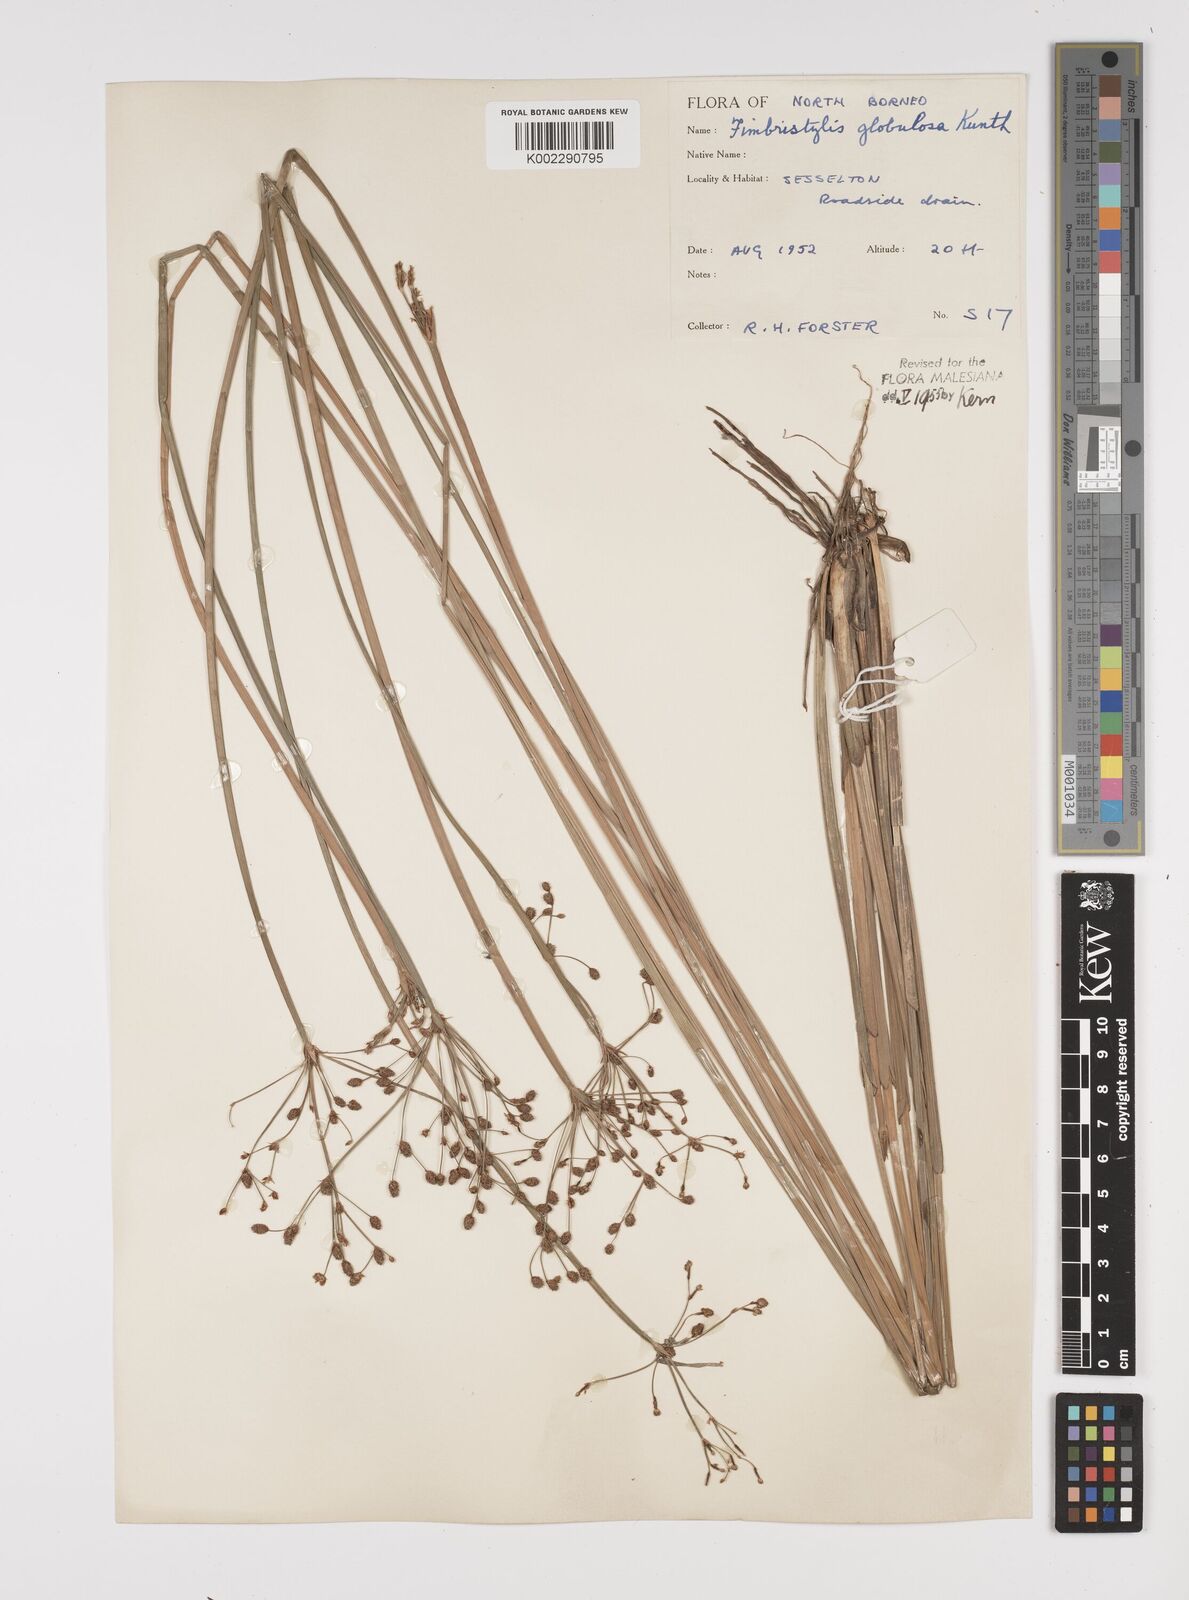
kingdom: Plantae
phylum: Tracheophyta
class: Liliopsida
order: Poales
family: Cyperaceae
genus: Fimbristylis
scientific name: Fimbristylis umbellaris
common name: Globular fimbristylis
